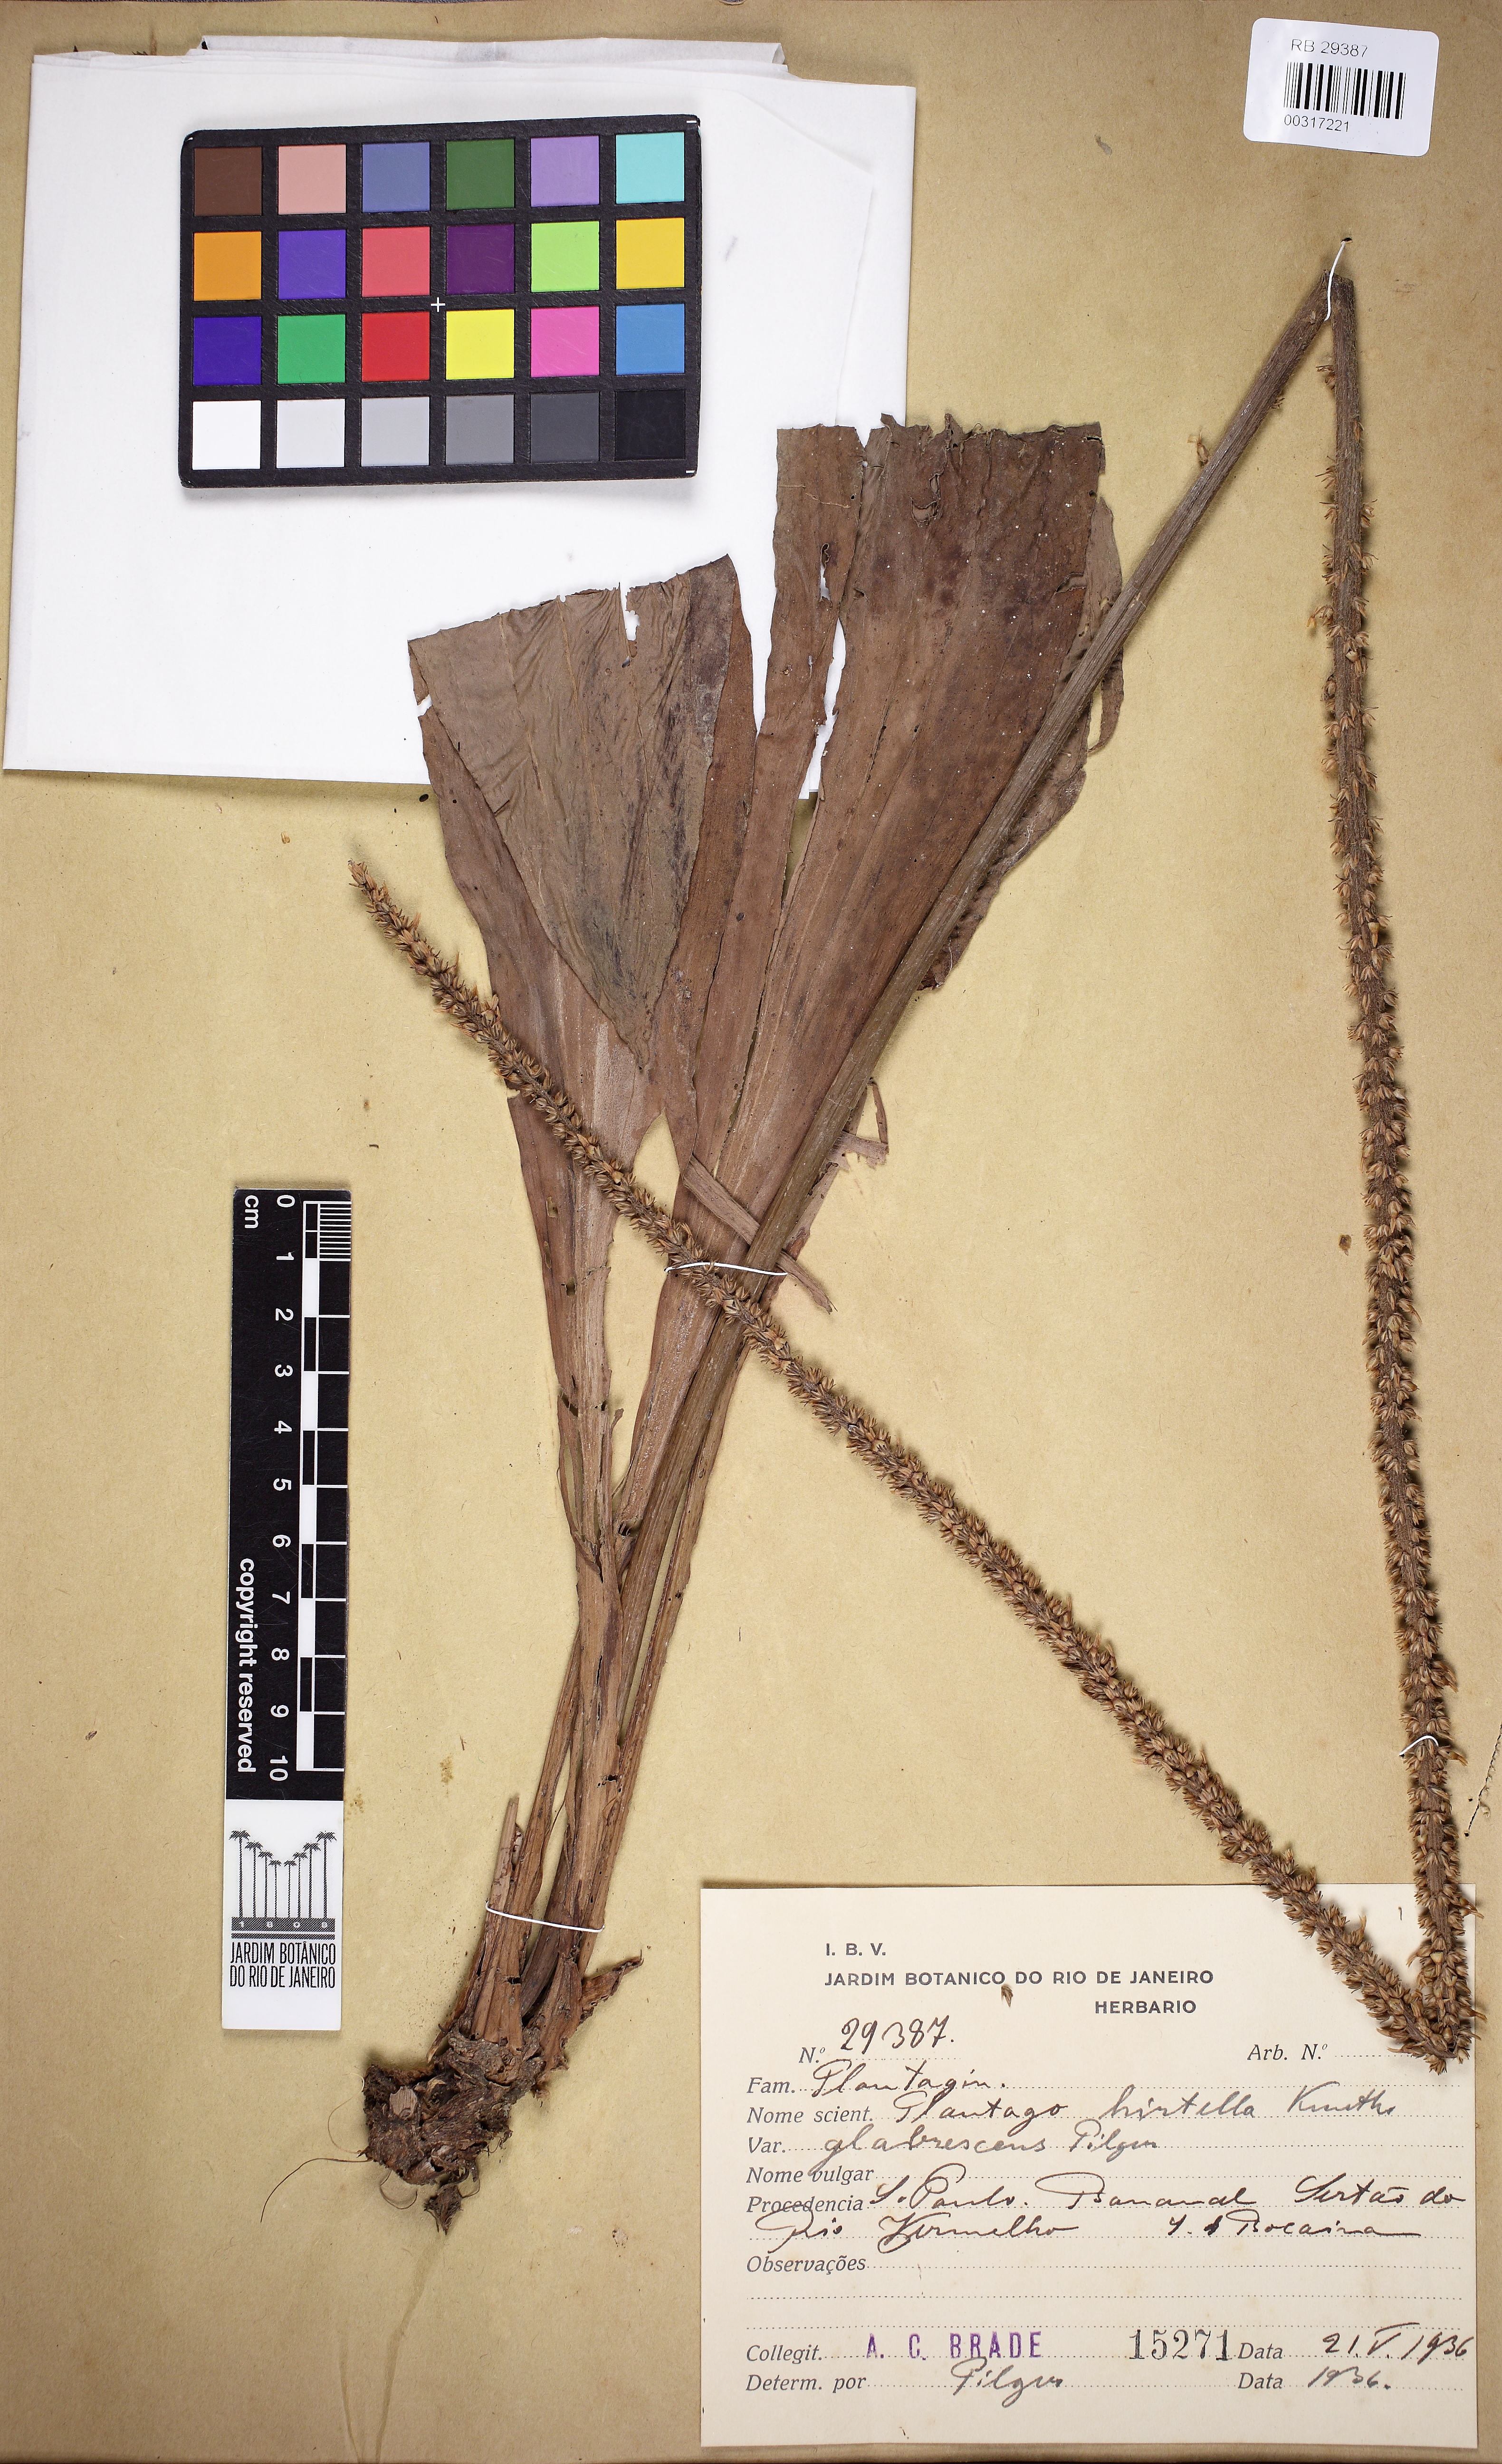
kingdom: Plantae
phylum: Tracheophyta
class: Magnoliopsida
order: Lamiales
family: Plantaginaceae
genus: Plantago
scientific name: Plantago australis
